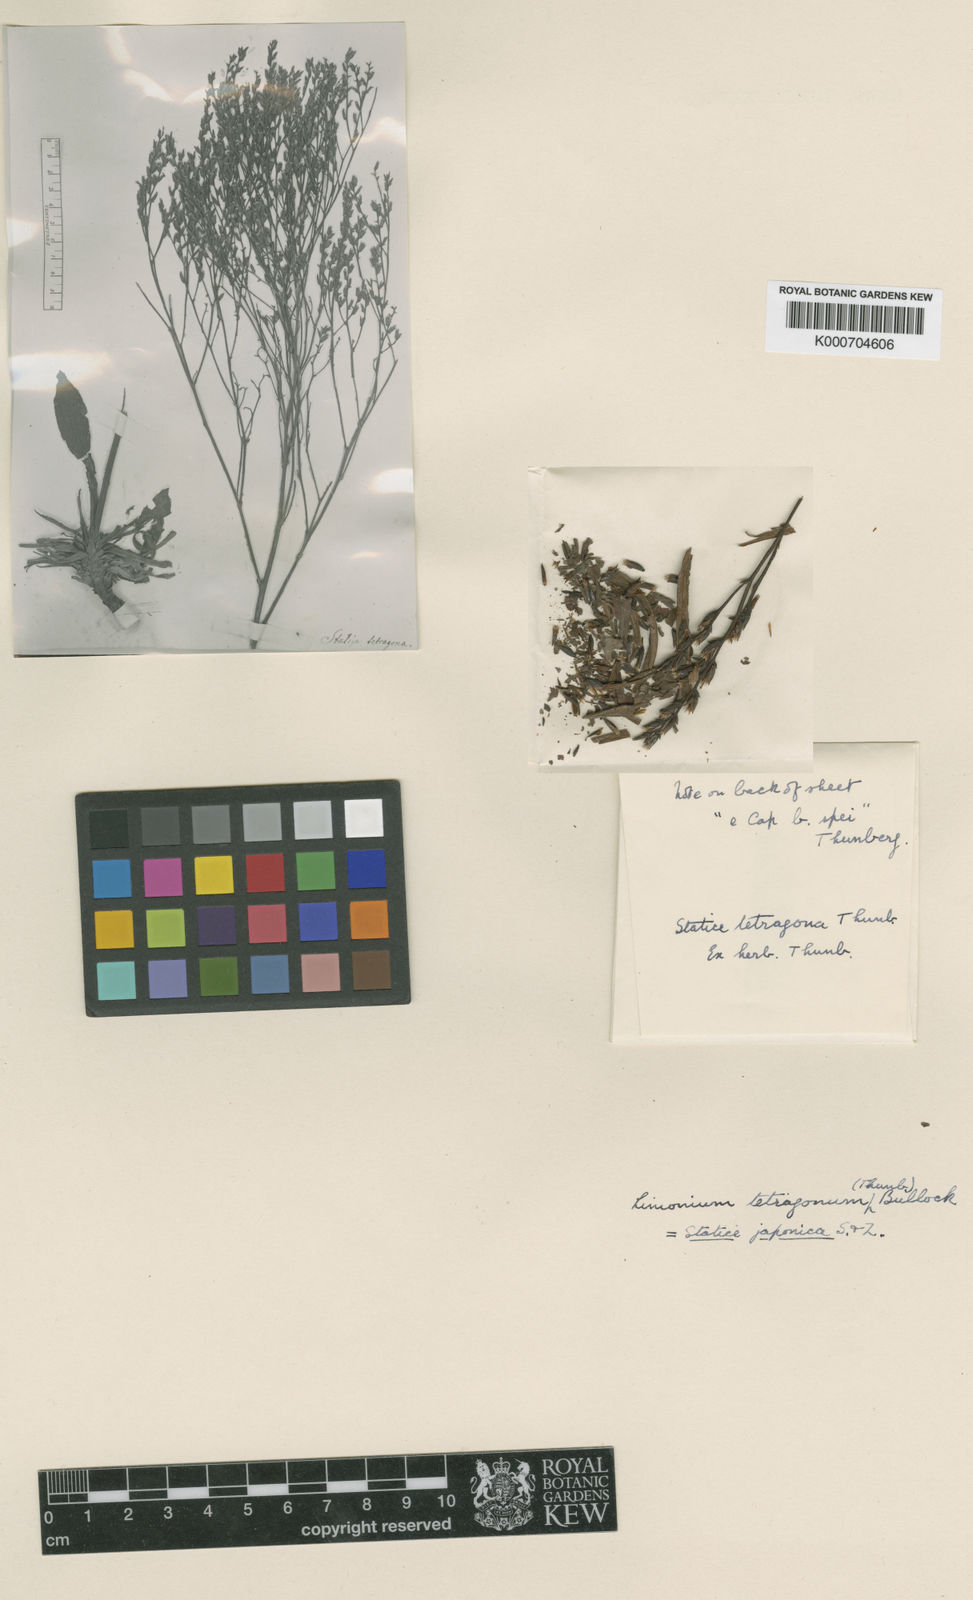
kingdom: Plantae
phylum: Tracheophyta
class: Magnoliopsida
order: Caryophyllales
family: Plumbaginaceae
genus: Limonium
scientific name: Limonium tetragonum
